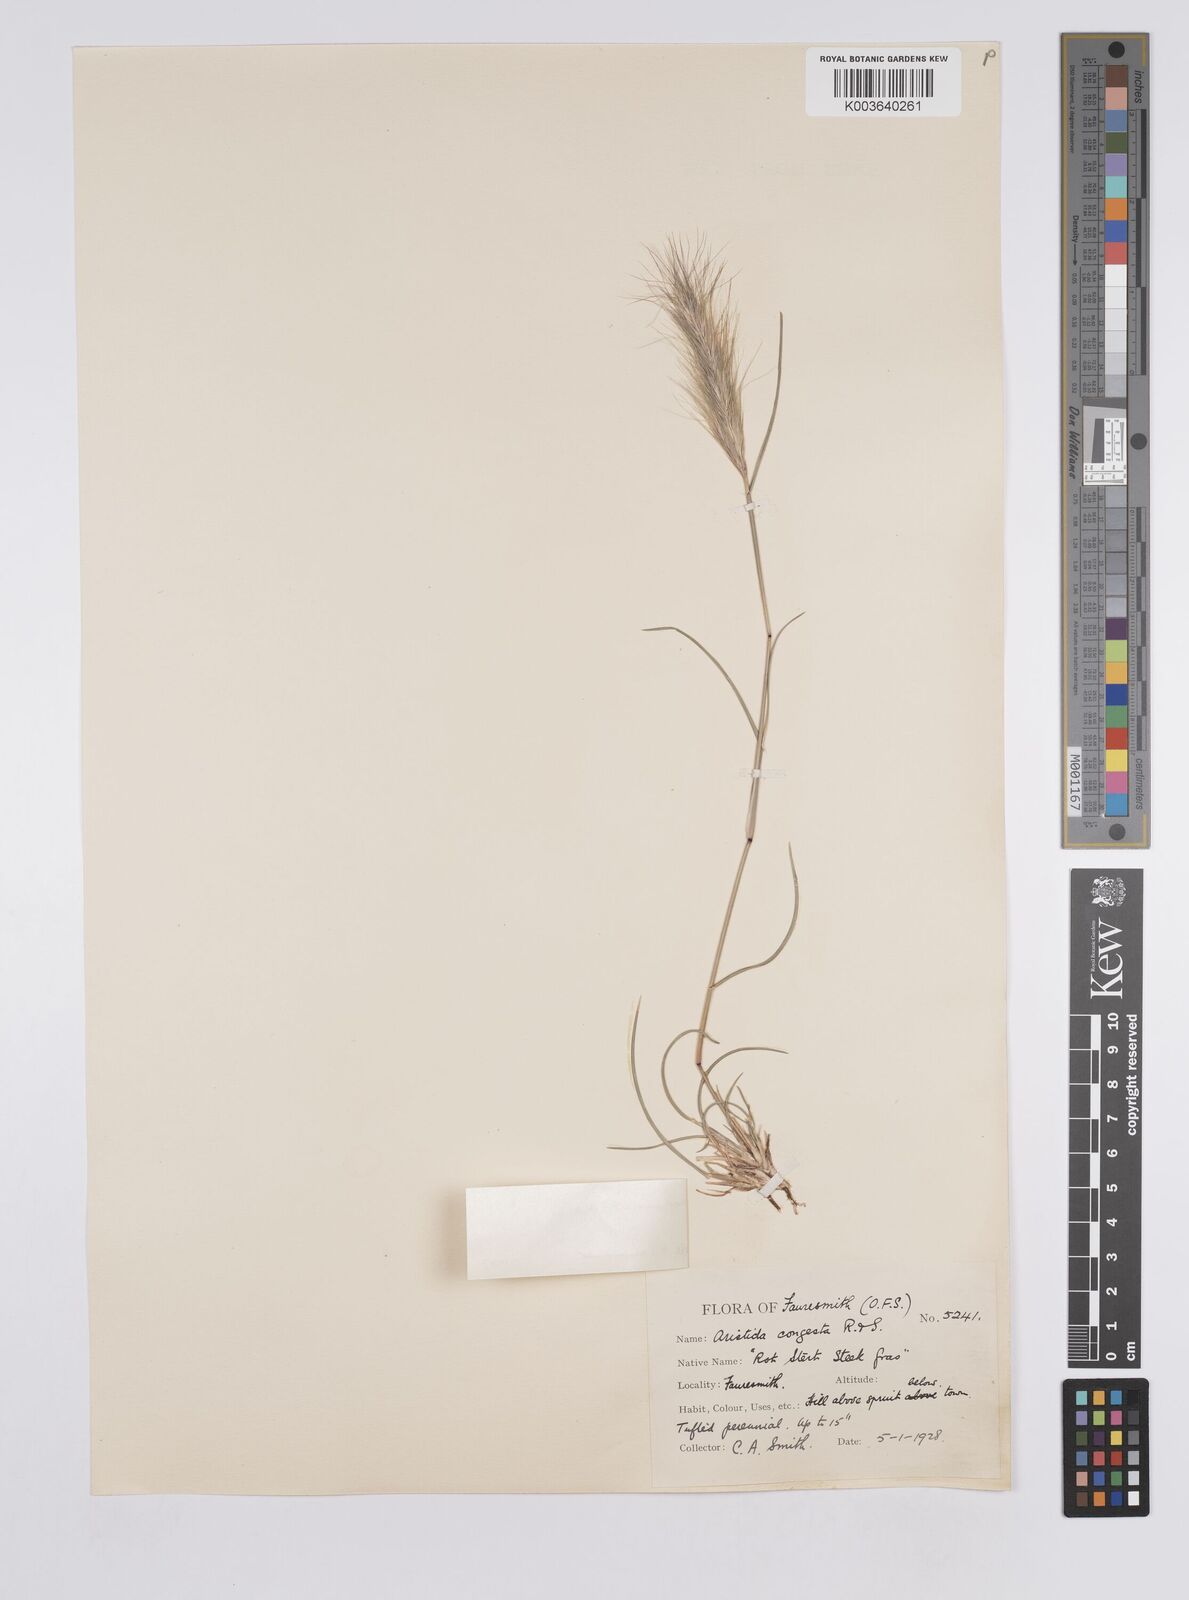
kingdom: Plantae
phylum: Tracheophyta
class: Liliopsida
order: Poales
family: Poaceae
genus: Aristida
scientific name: Aristida congesta
